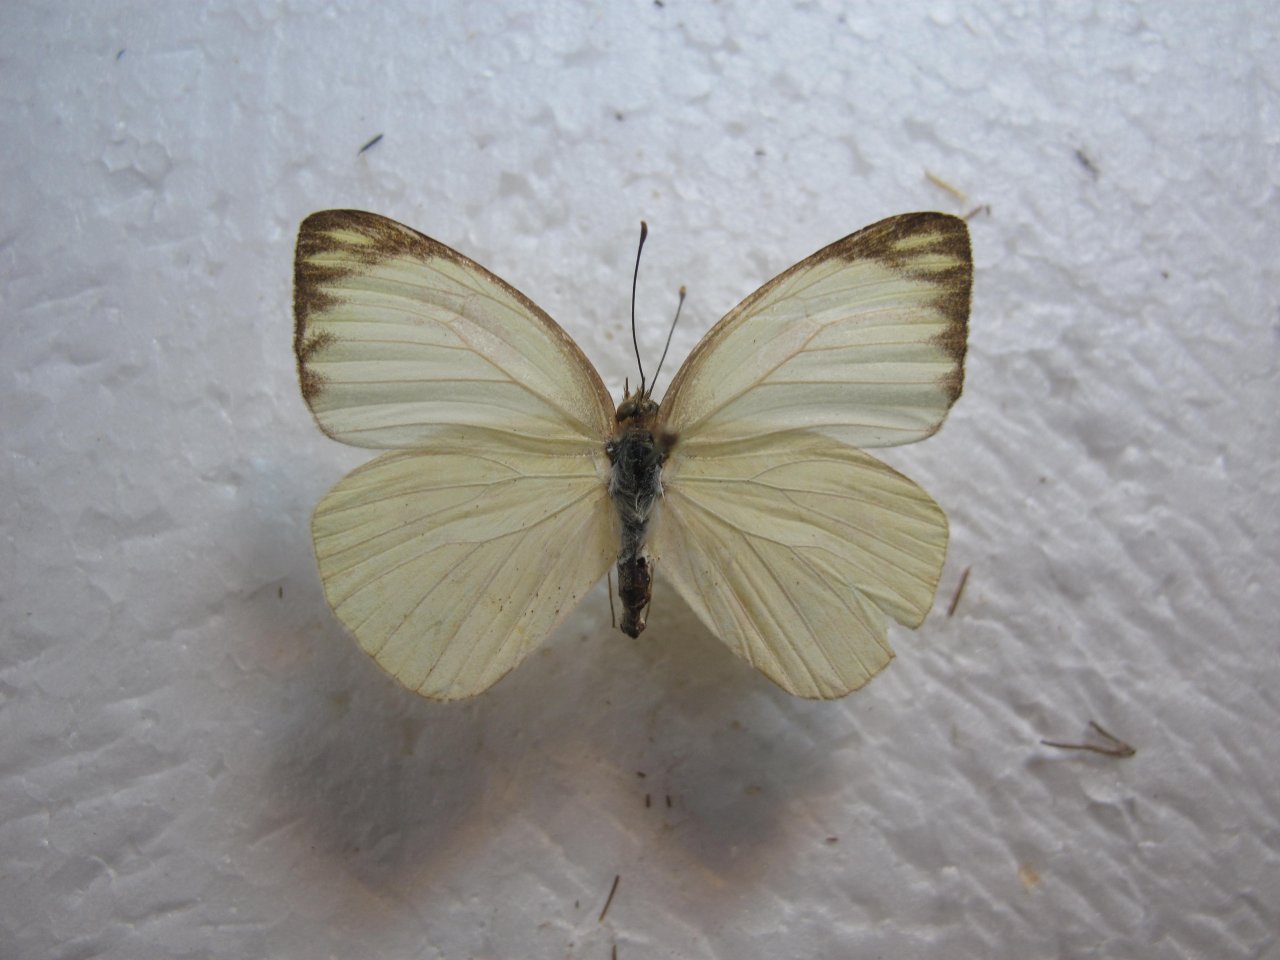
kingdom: Animalia
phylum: Arthropoda
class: Insecta
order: Lepidoptera
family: Pieridae
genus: Ascia
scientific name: Ascia monuste
